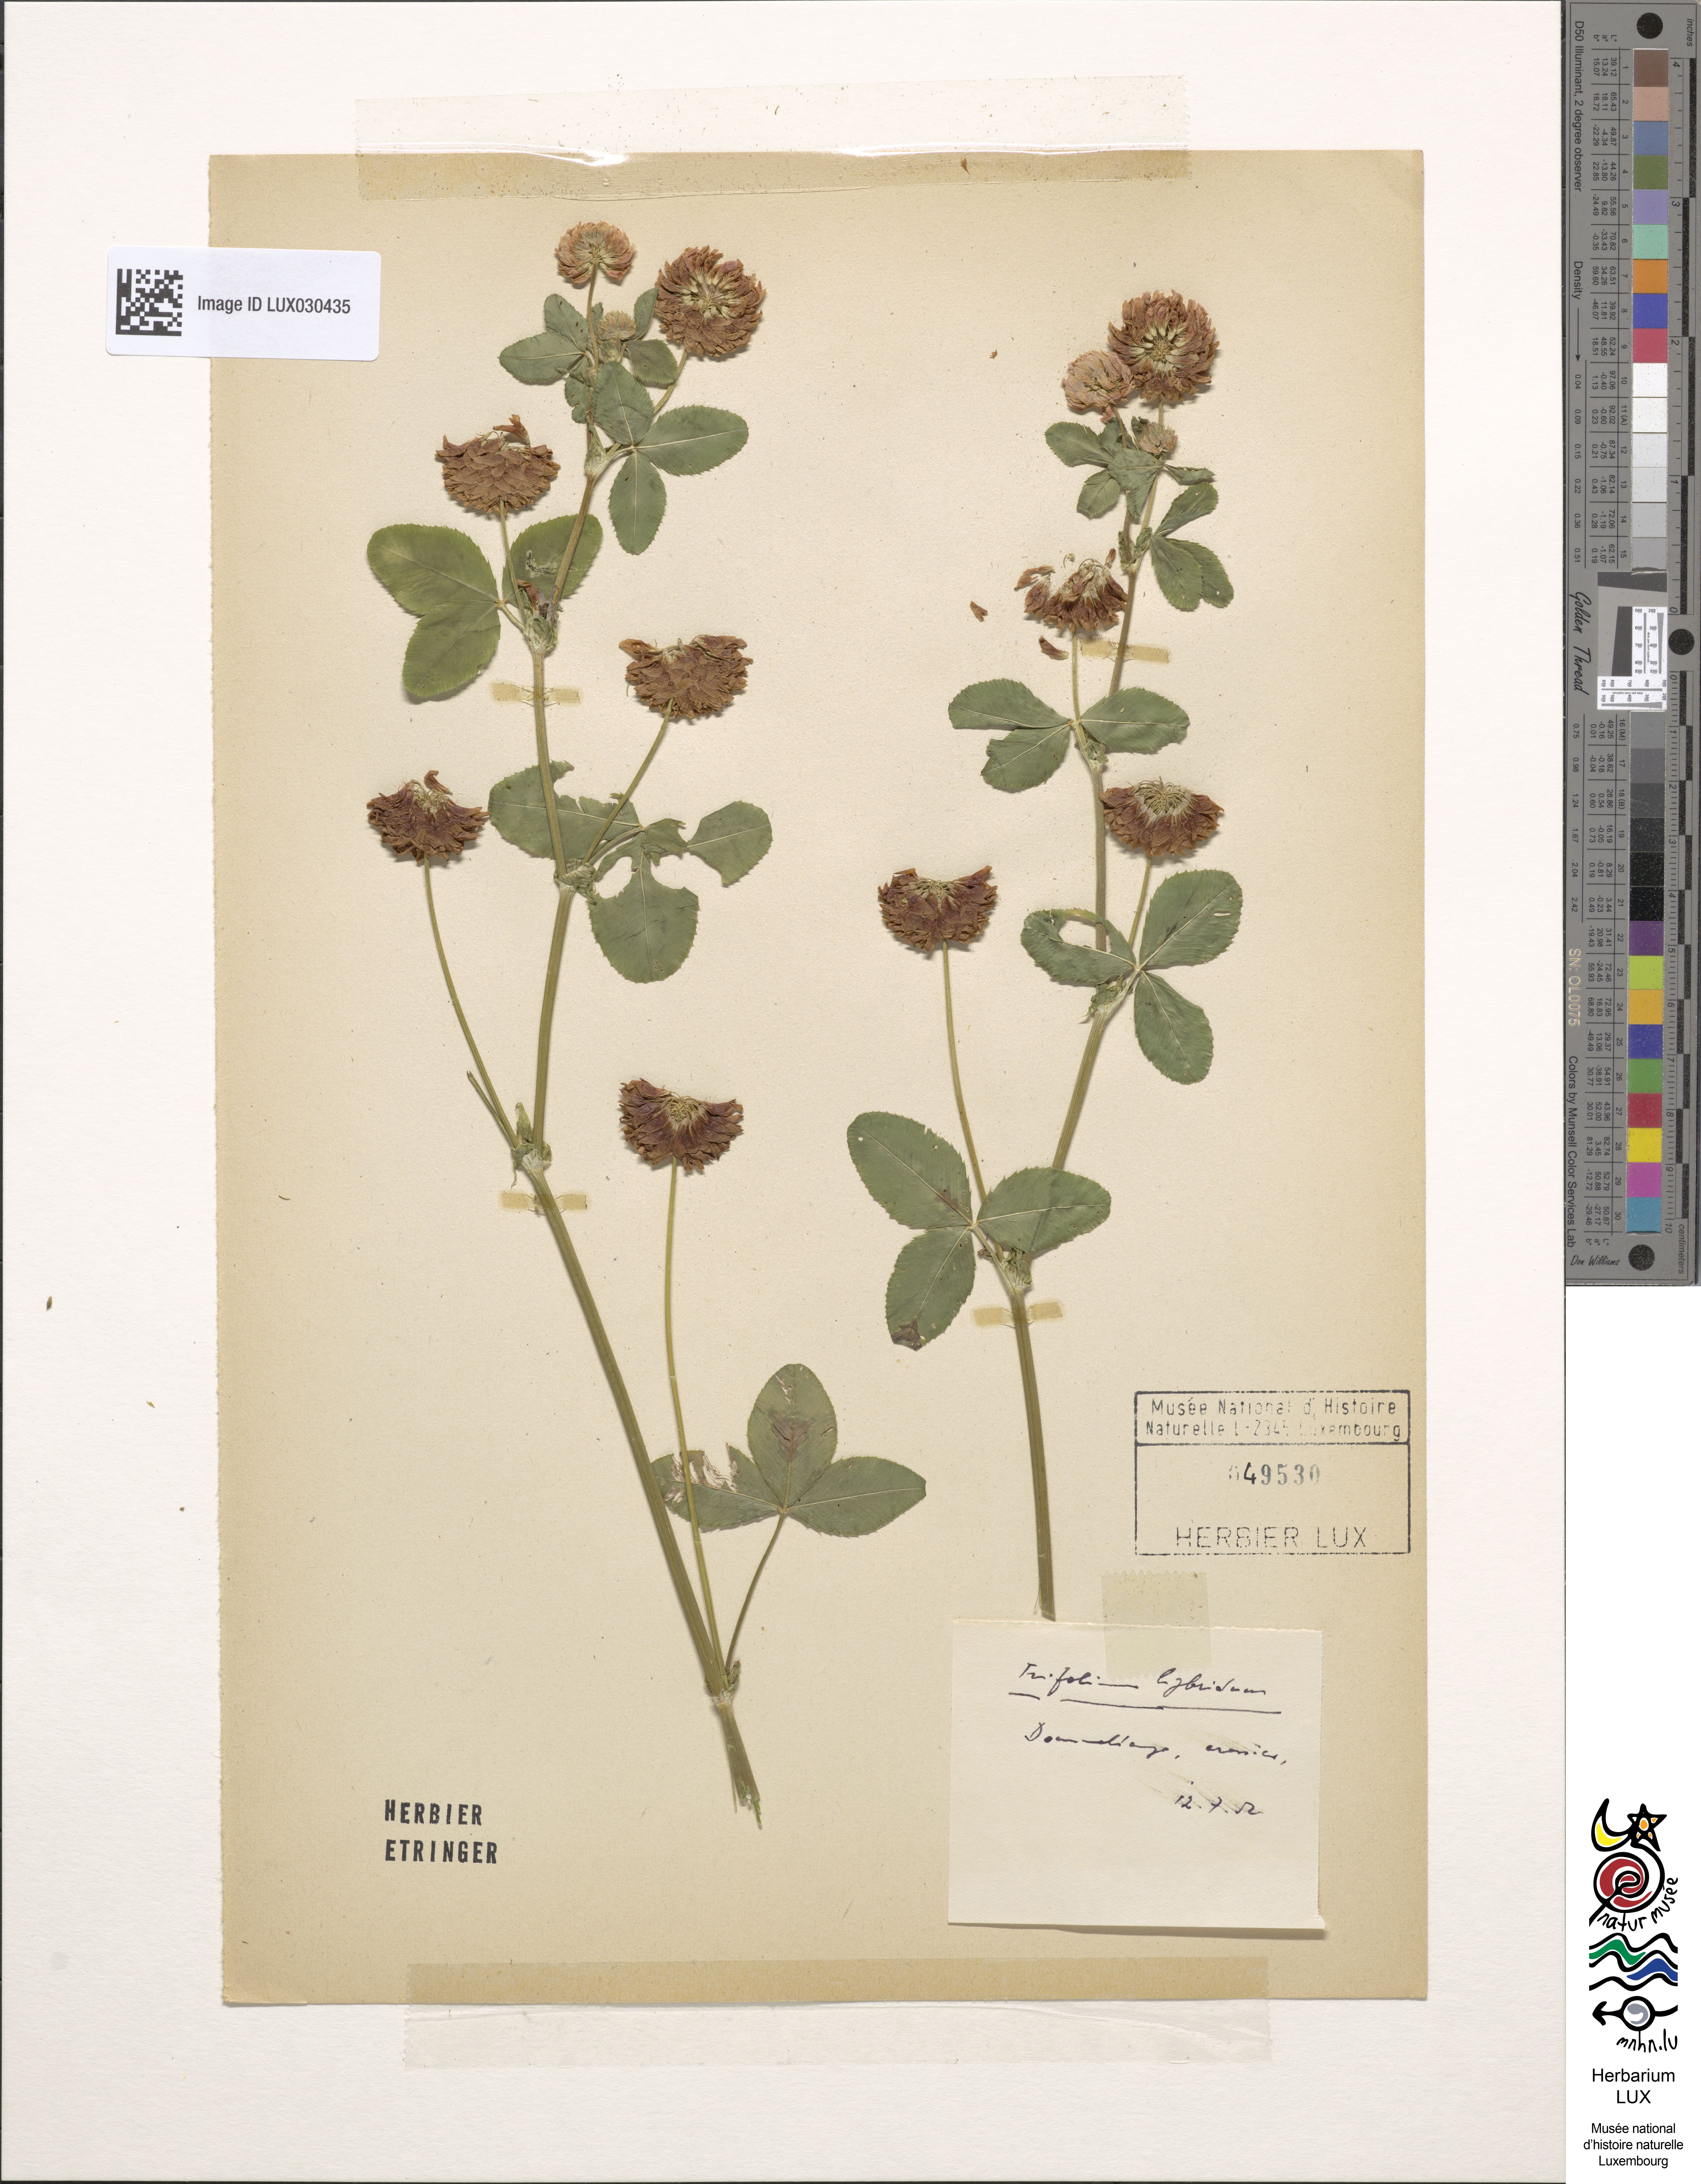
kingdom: Plantae
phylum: Tracheophyta
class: Magnoliopsida
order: Fabales
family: Fabaceae
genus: Trifolium
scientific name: Trifolium hybridum
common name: Alsike clover
